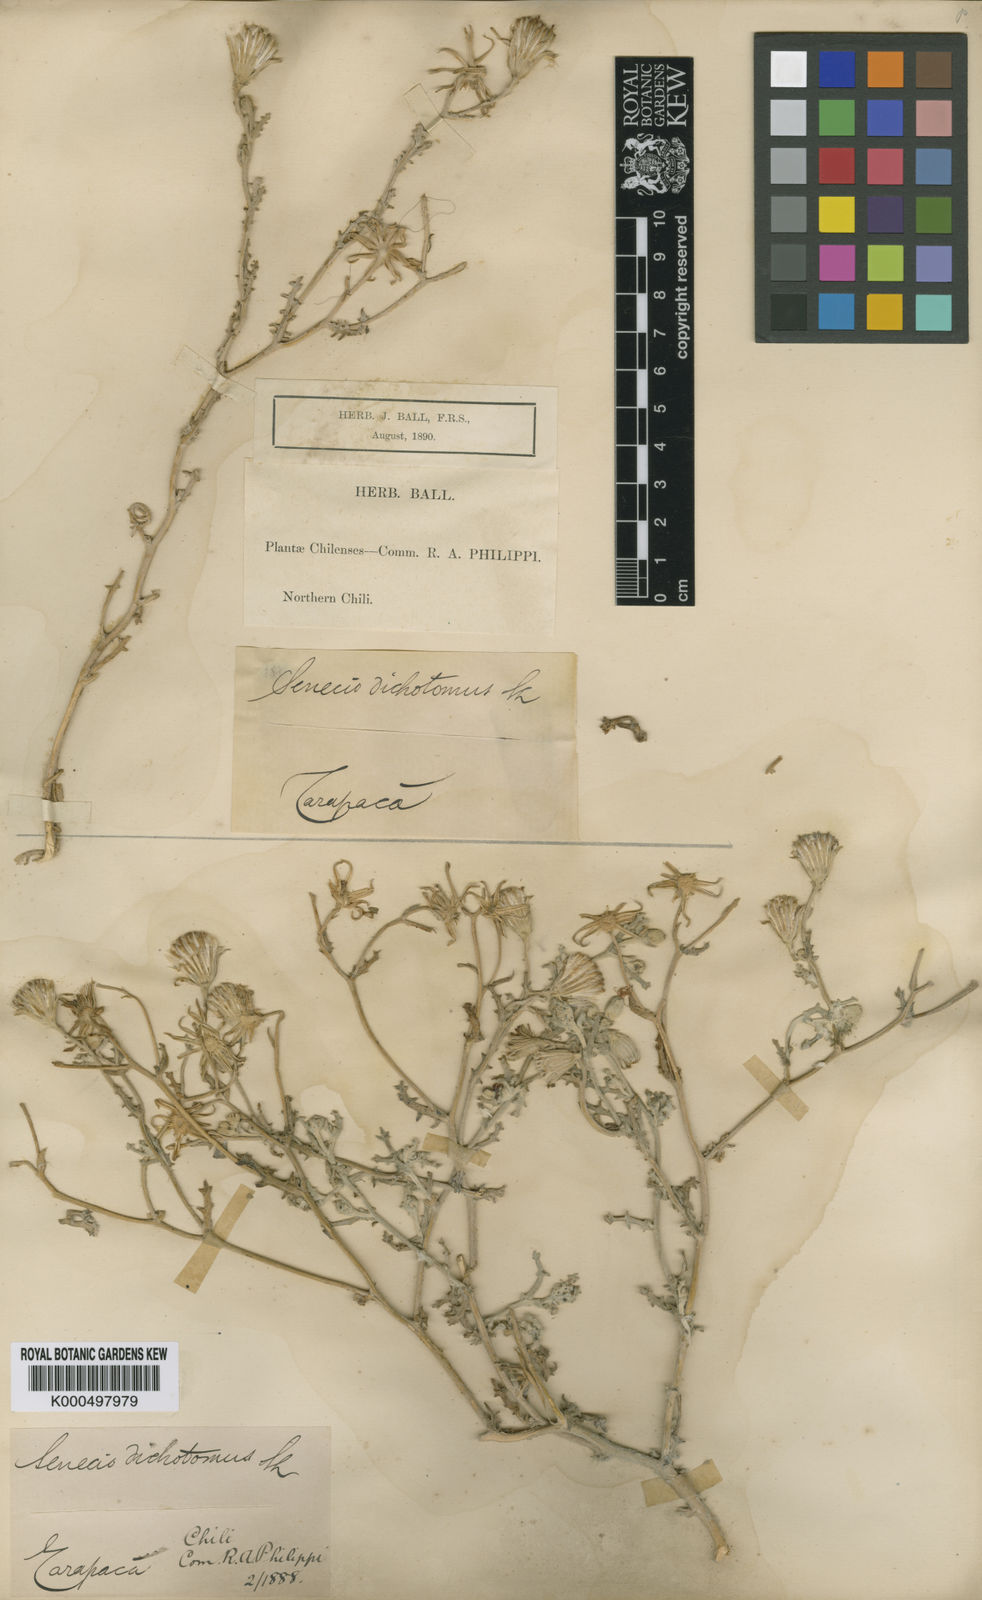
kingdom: Plantae
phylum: Tracheophyta
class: Magnoliopsida
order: Asterales
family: Asteraceae
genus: Senecio
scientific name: Senecio dichotomus
